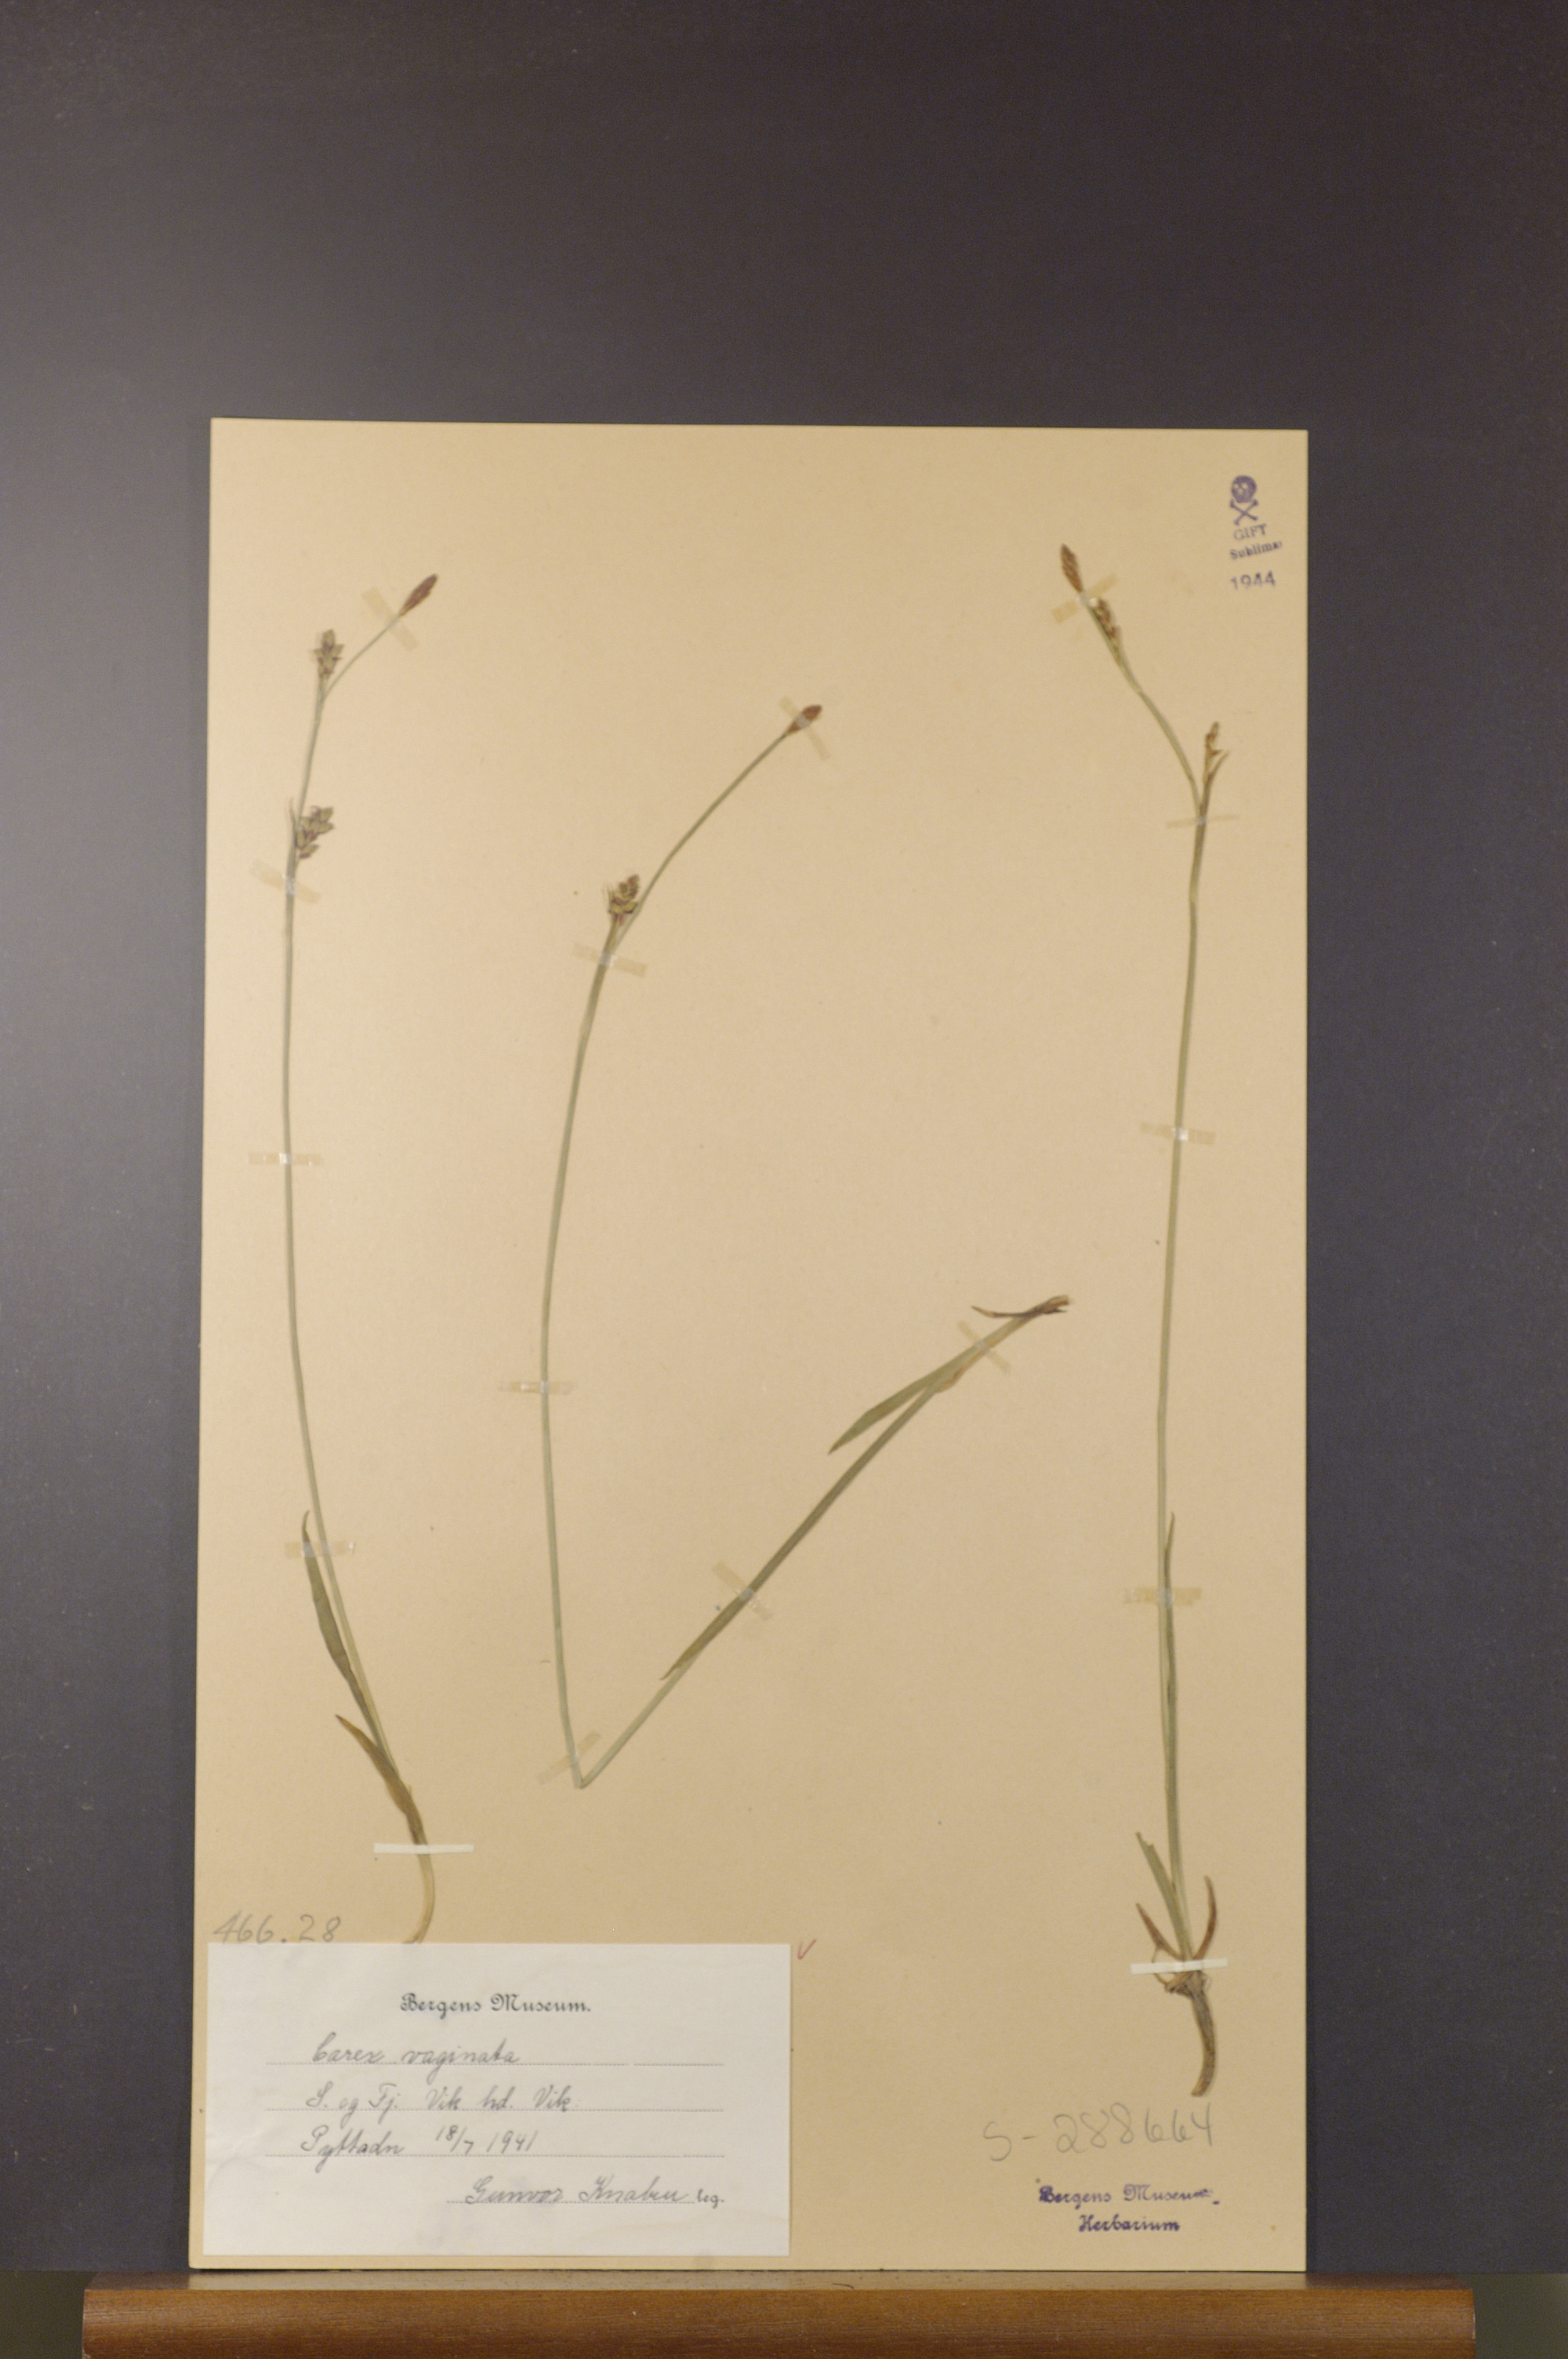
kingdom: Plantae
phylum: Tracheophyta
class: Liliopsida
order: Poales
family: Cyperaceae
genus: Carex
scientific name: Carex vaginata
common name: Sheathed sedge
